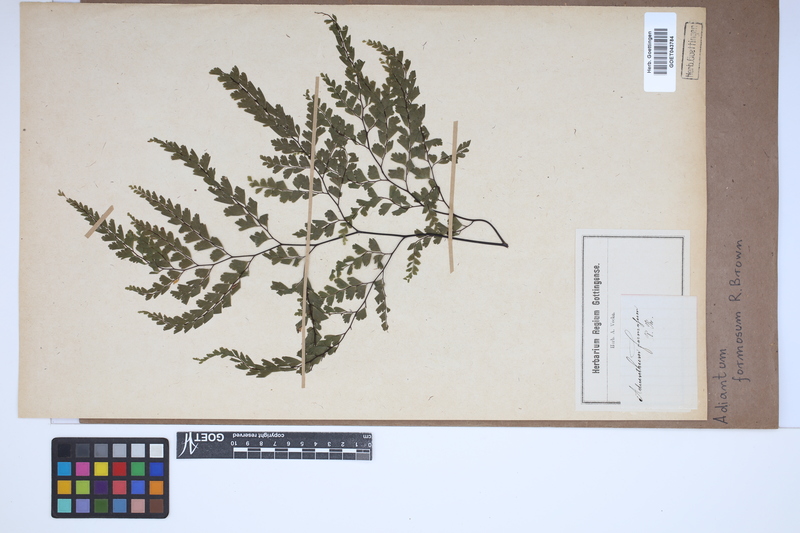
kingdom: Plantae
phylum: Tracheophyta
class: Polypodiopsida
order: Polypodiales
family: Pteridaceae
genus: Adiantum
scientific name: Adiantum formosum
